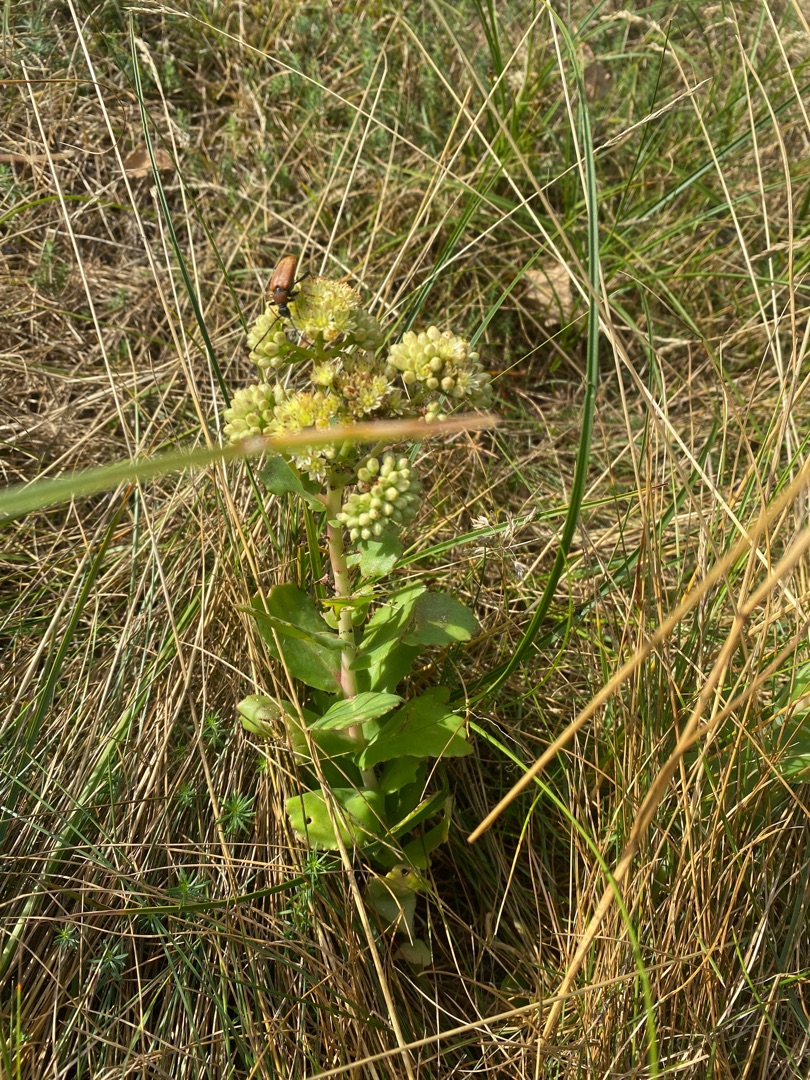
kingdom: Plantae
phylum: Tracheophyta
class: Magnoliopsida
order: Saxifragales
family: Crassulaceae
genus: Hylotelephium
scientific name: Hylotelephium maximum
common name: Almindelig sankthansurt
